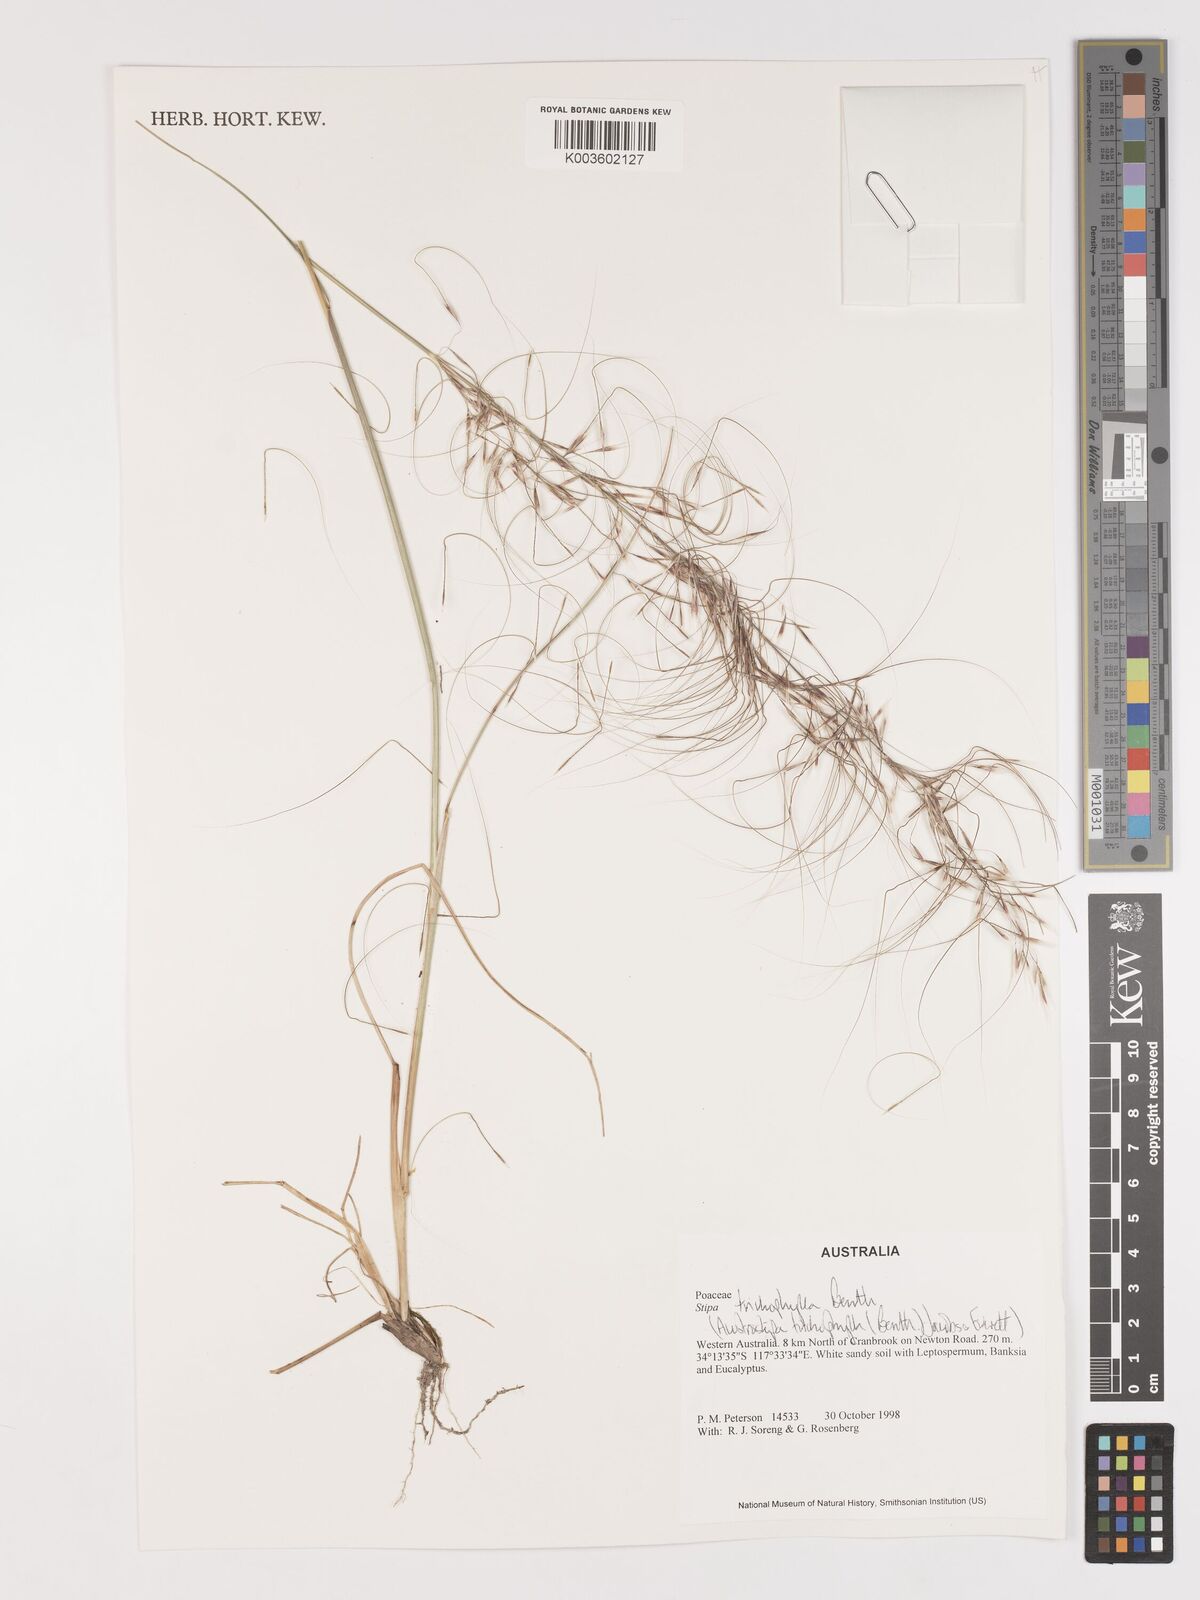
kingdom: Plantae
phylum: Tracheophyta
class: Liliopsida
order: Poales
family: Poaceae
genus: Austrostipa
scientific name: Austrostipa trichophylla
